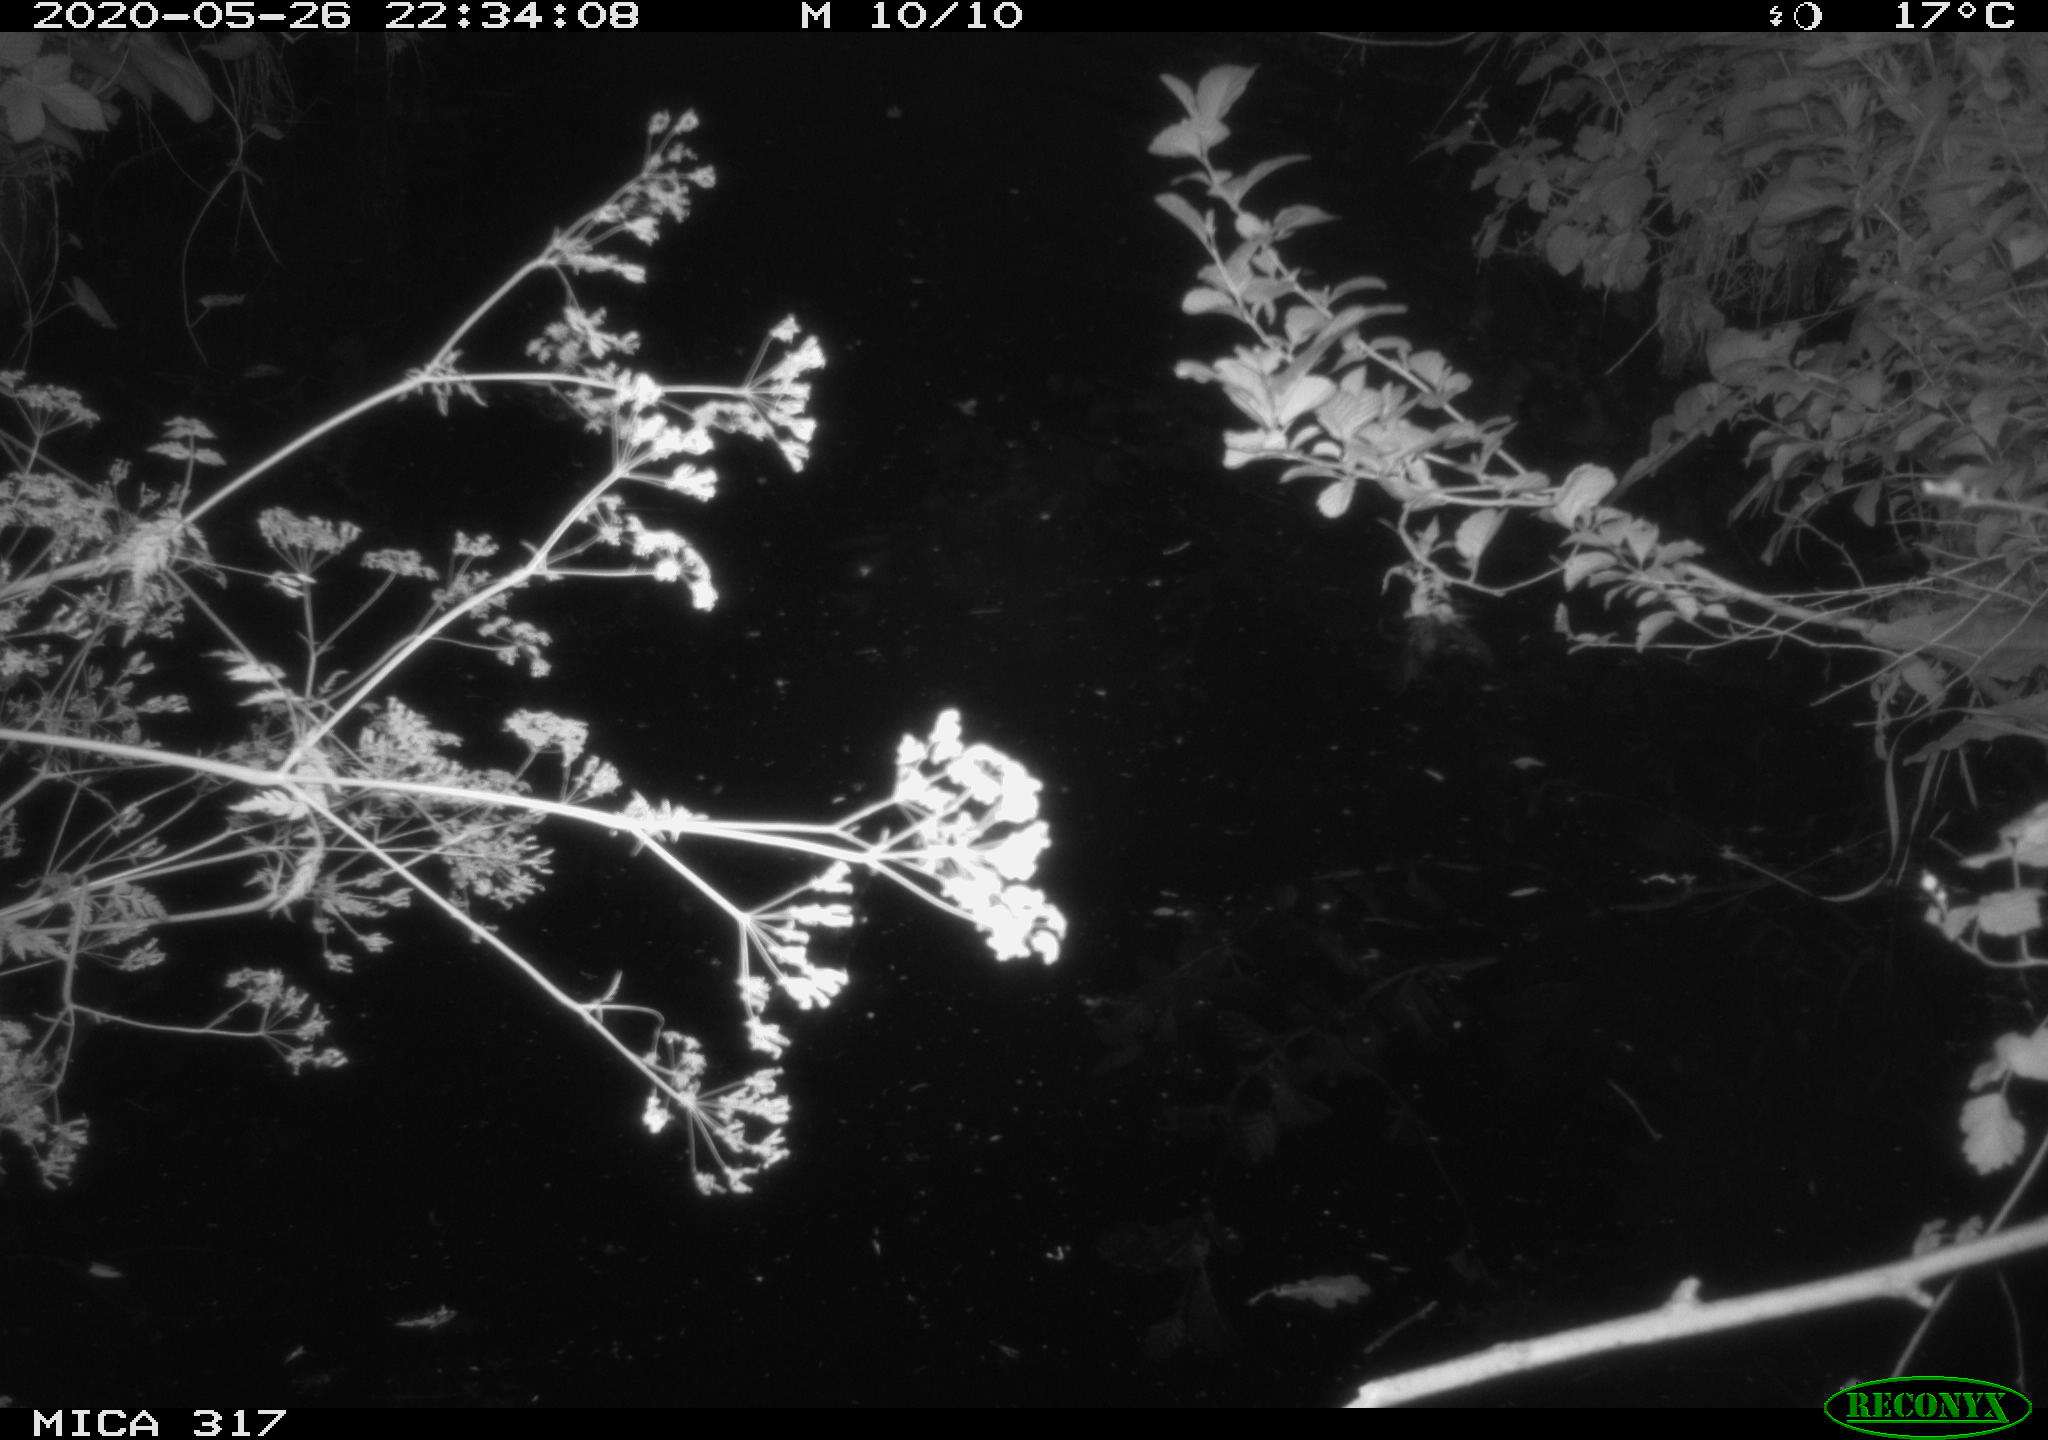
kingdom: Animalia
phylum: Chordata
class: Aves
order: Anseriformes
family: Anatidae
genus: Anas
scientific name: Anas platyrhynchos
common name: Mallard
